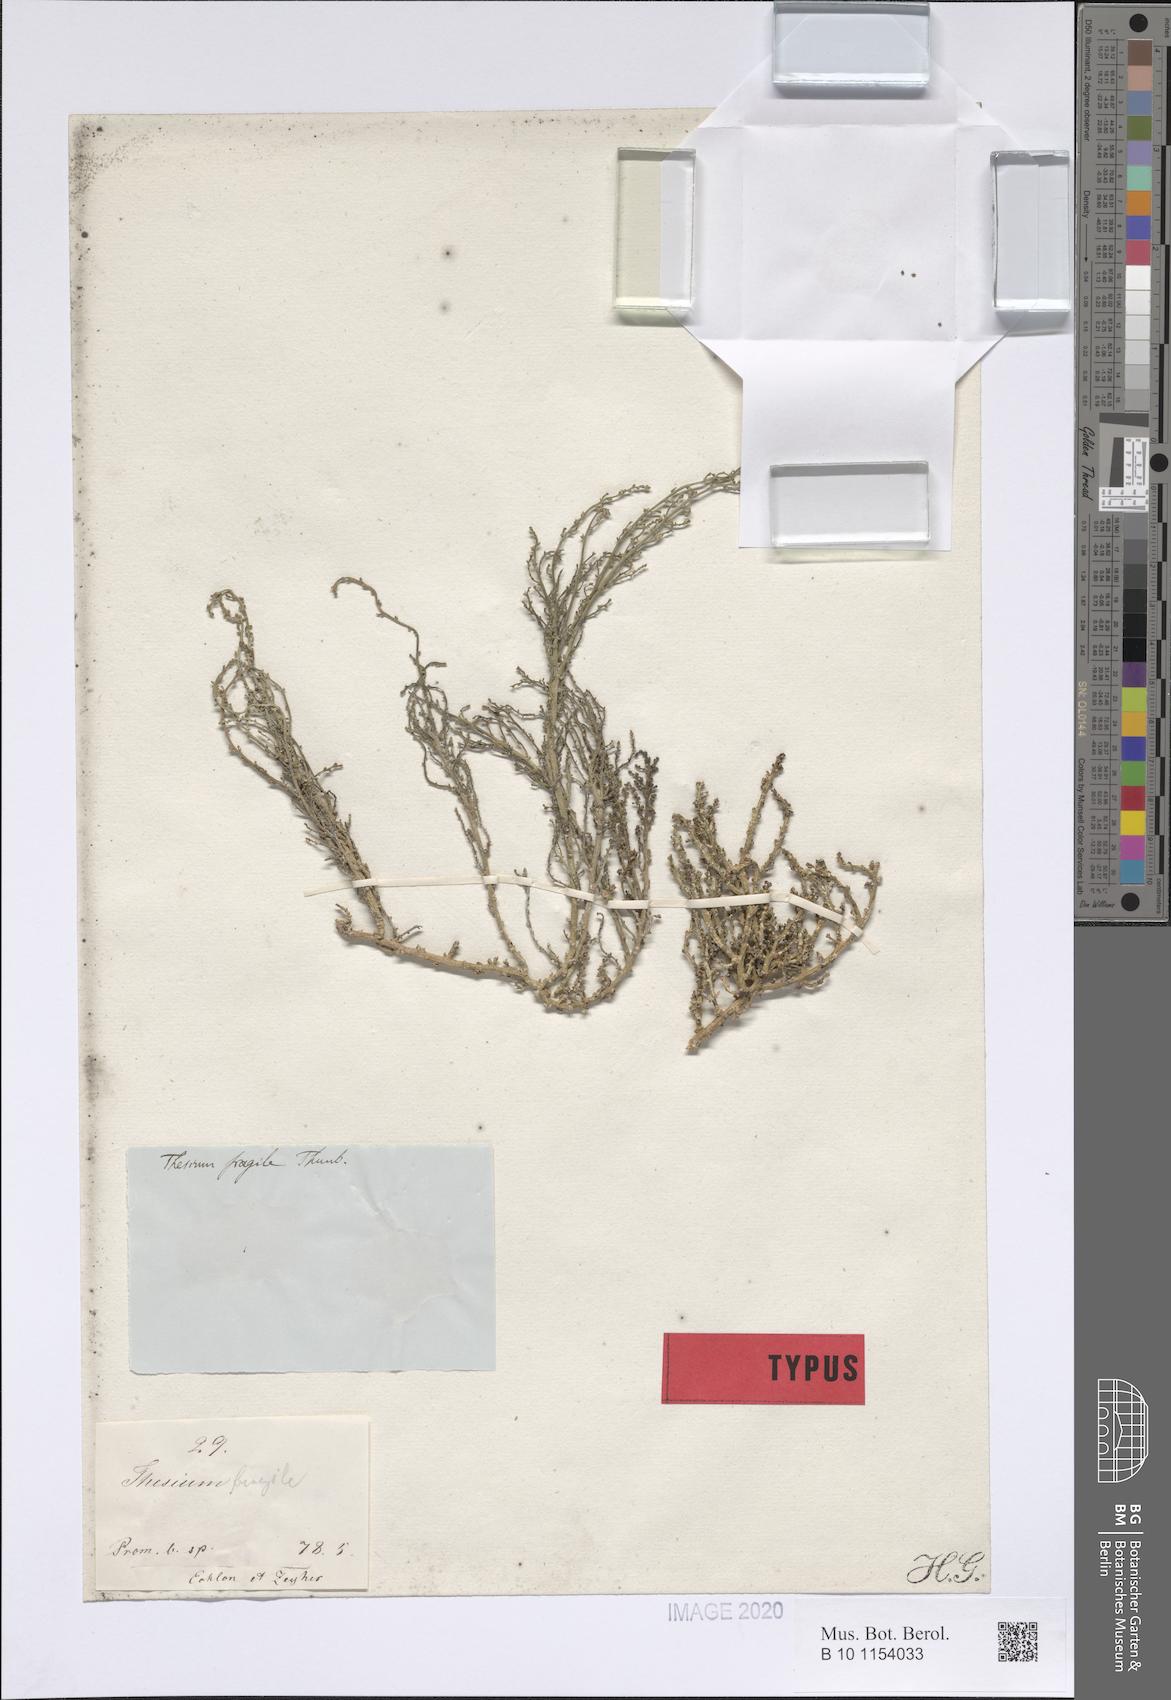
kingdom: Plantae
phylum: Tracheophyta
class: Magnoliopsida
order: Santalales
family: Thesiaceae
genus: Thesium
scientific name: Thesium confusum
